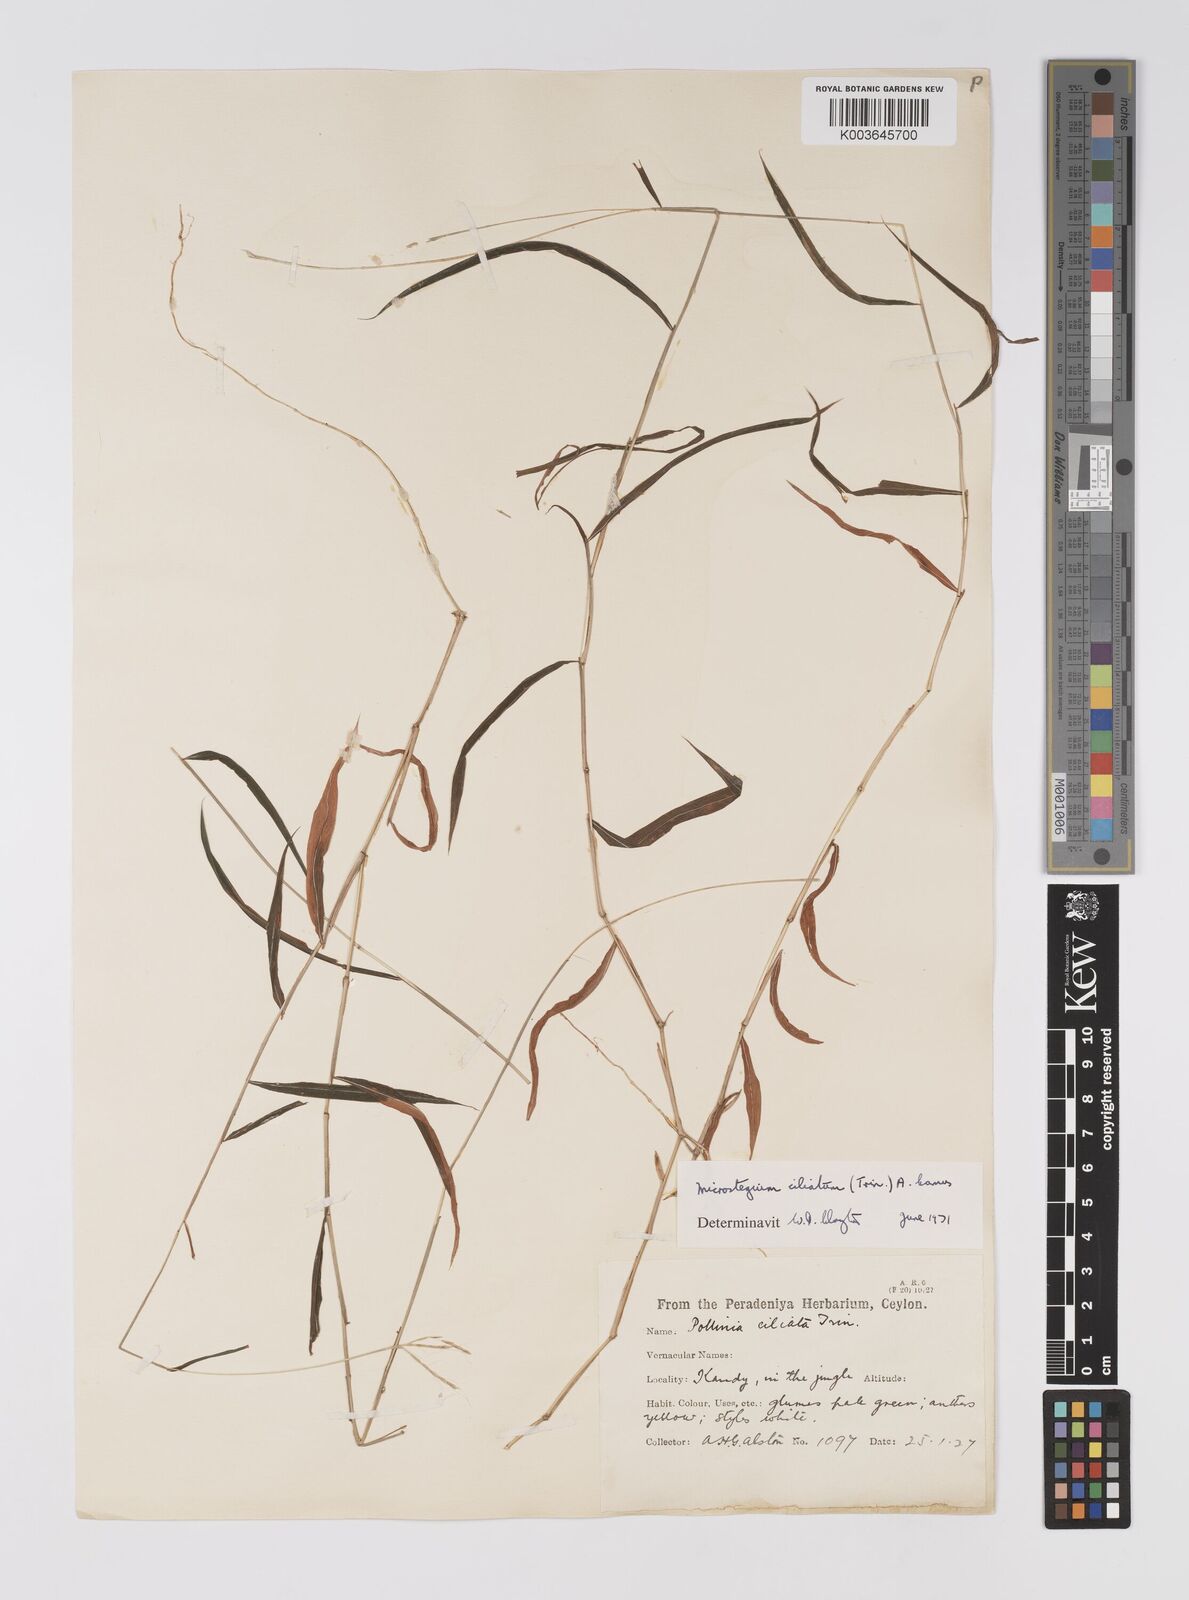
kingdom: Plantae
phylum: Tracheophyta
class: Liliopsida
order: Poales
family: Poaceae
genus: Microstegium
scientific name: Microstegium fasciculatum
